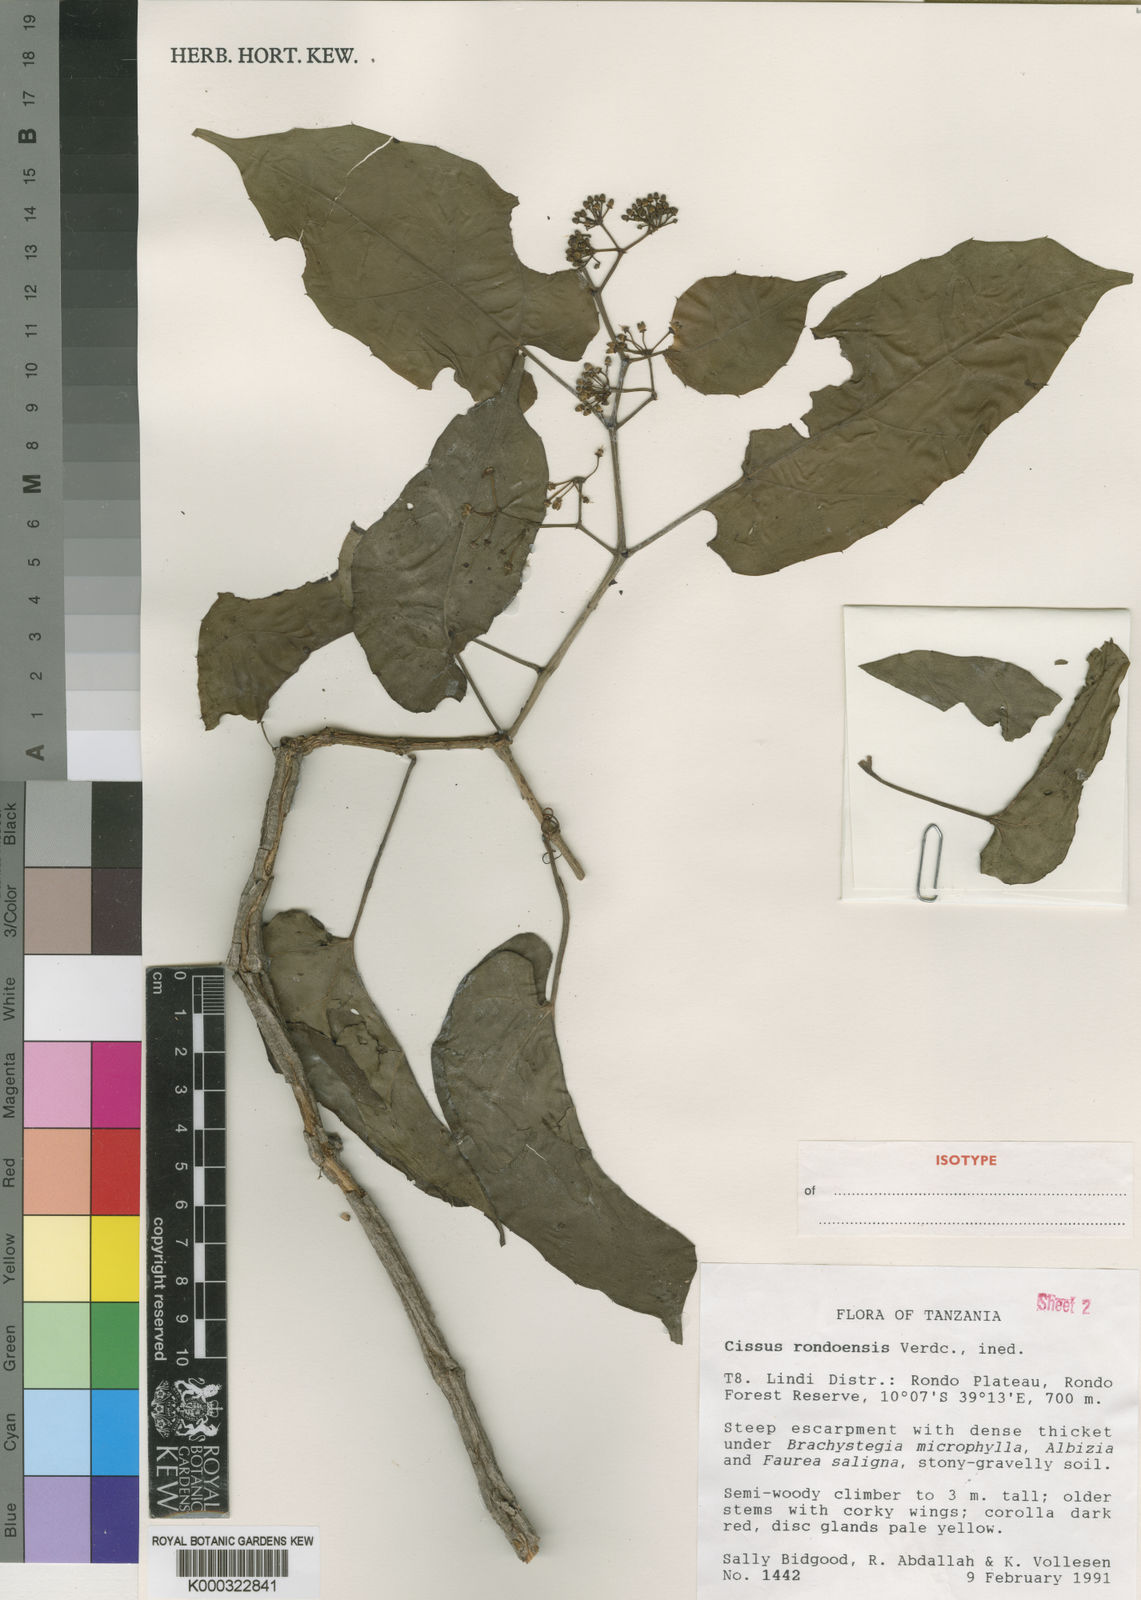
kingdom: Plantae
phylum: Tracheophyta
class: Magnoliopsida
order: Vitales
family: Vitaceae
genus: Cissus
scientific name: Cissus rondoensis
